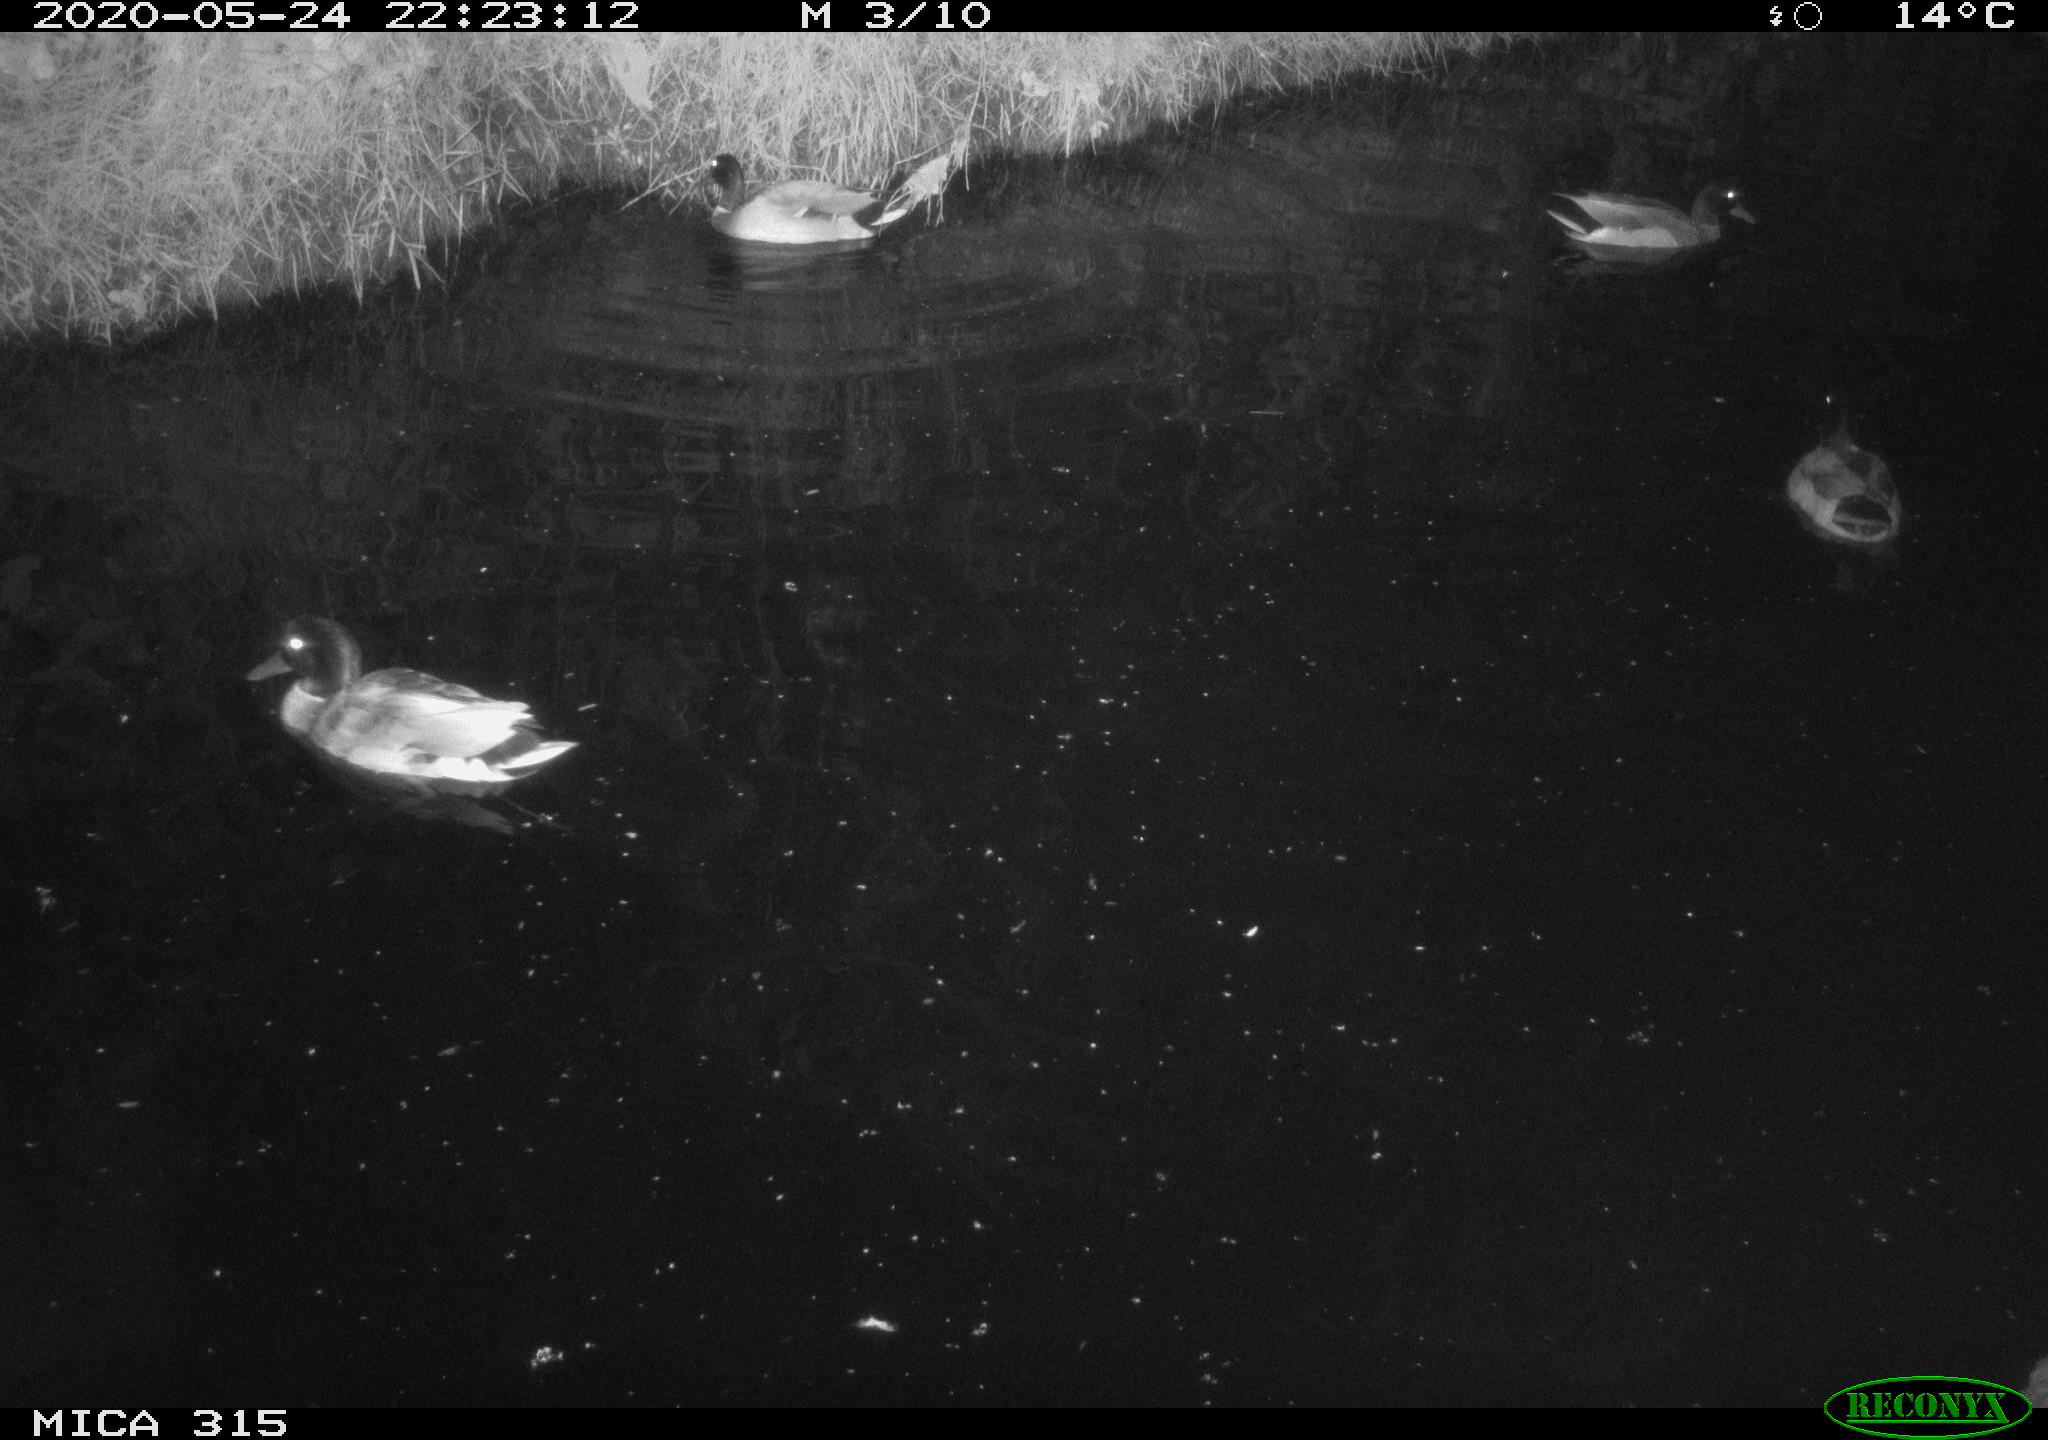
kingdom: Animalia
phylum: Chordata
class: Aves
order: Anseriformes
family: Anatidae
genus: Anas
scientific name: Anas platyrhynchos
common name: Mallard
